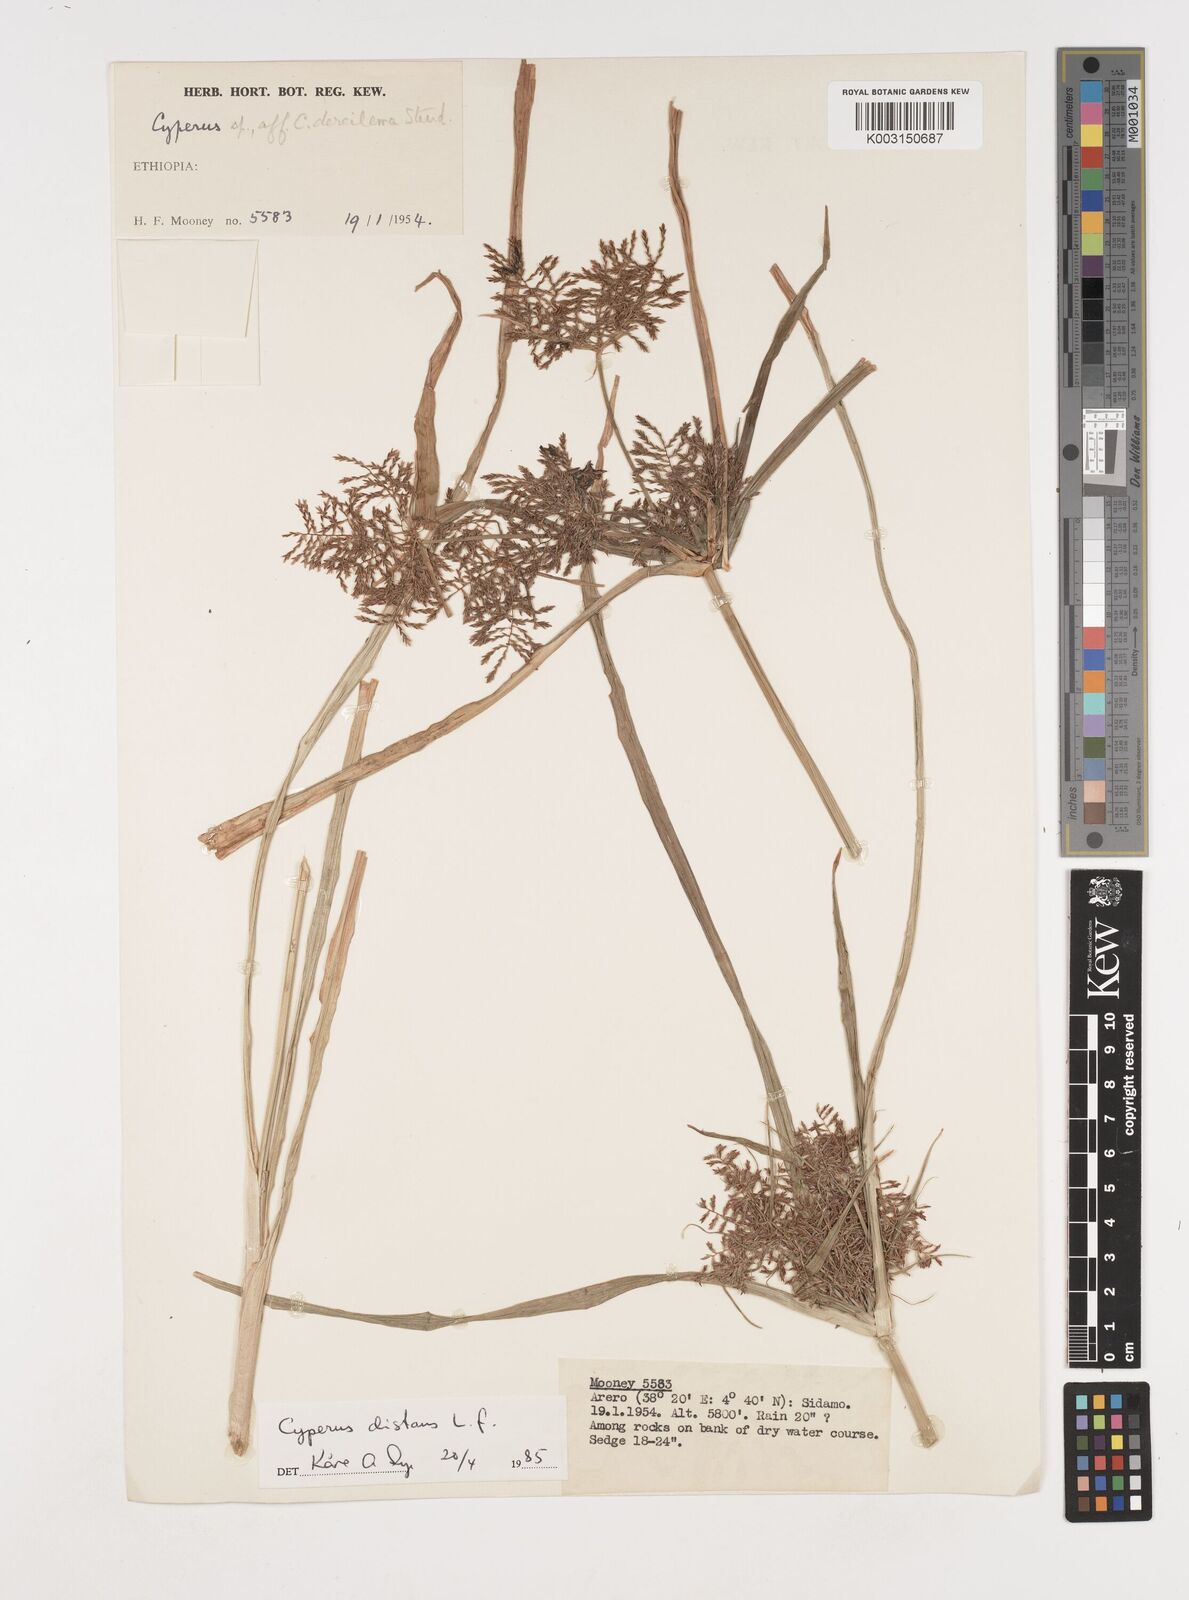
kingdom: Plantae
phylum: Tracheophyta
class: Liliopsida
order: Poales
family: Cyperaceae
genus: Cyperus
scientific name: Cyperus distans
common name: Slender cyperus
